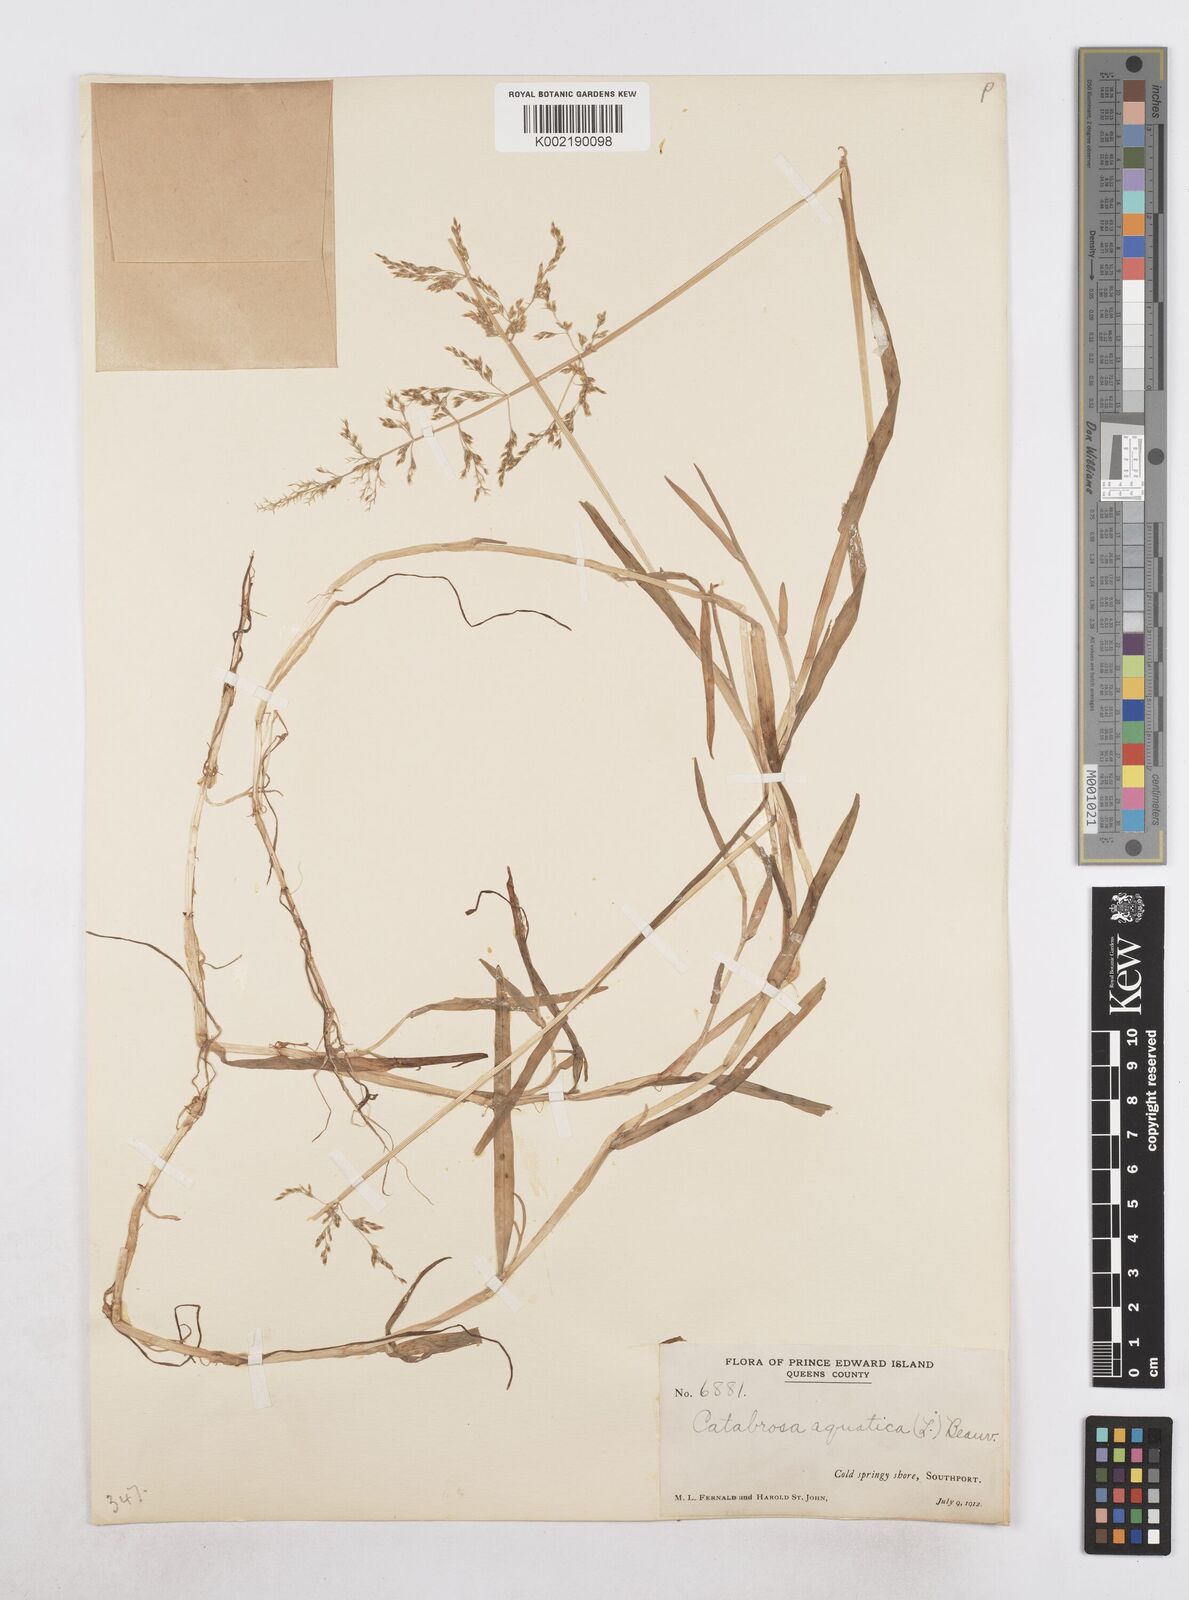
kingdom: Plantae
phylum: Tracheophyta
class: Liliopsida
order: Poales
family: Poaceae
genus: Catabrosa
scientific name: Catabrosa aquatica
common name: Whorl-grass
